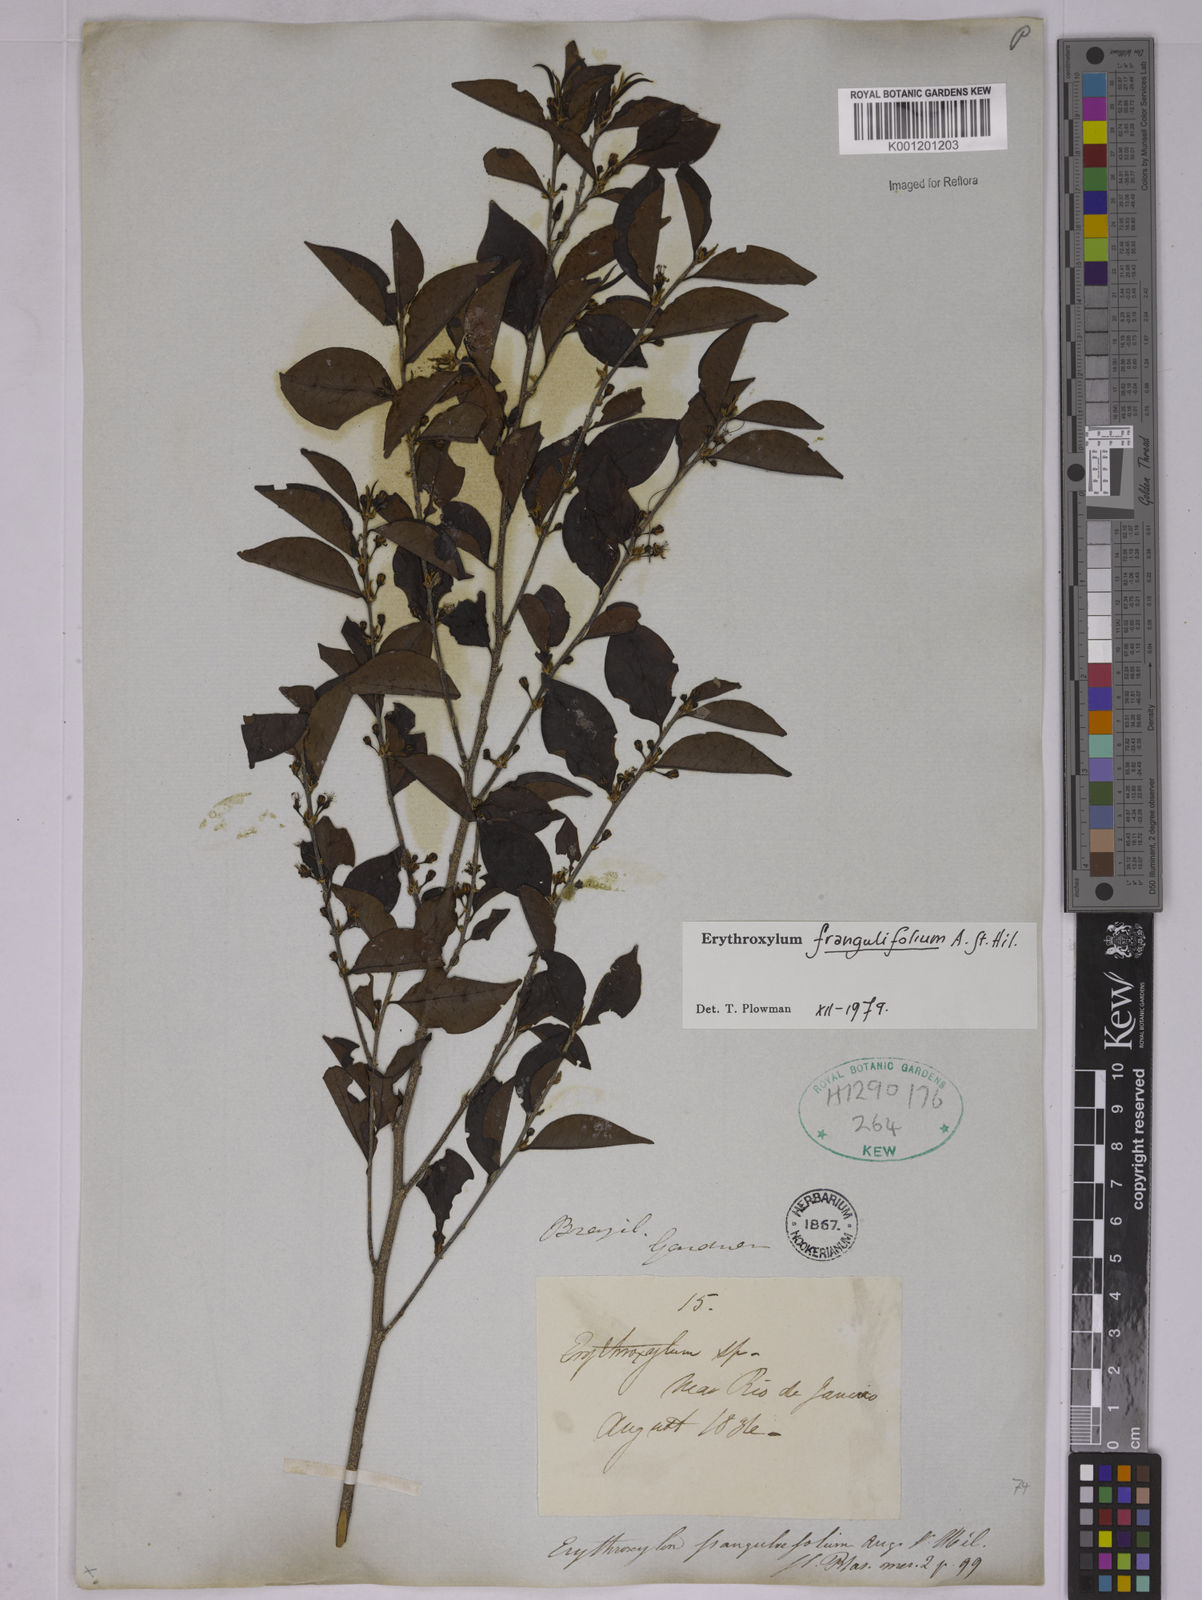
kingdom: Plantae
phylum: Tracheophyta
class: Magnoliopsida
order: Malpighiales
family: Erythroxylaceae
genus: Erythroxylum
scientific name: Erythroxylum frangulifolium
